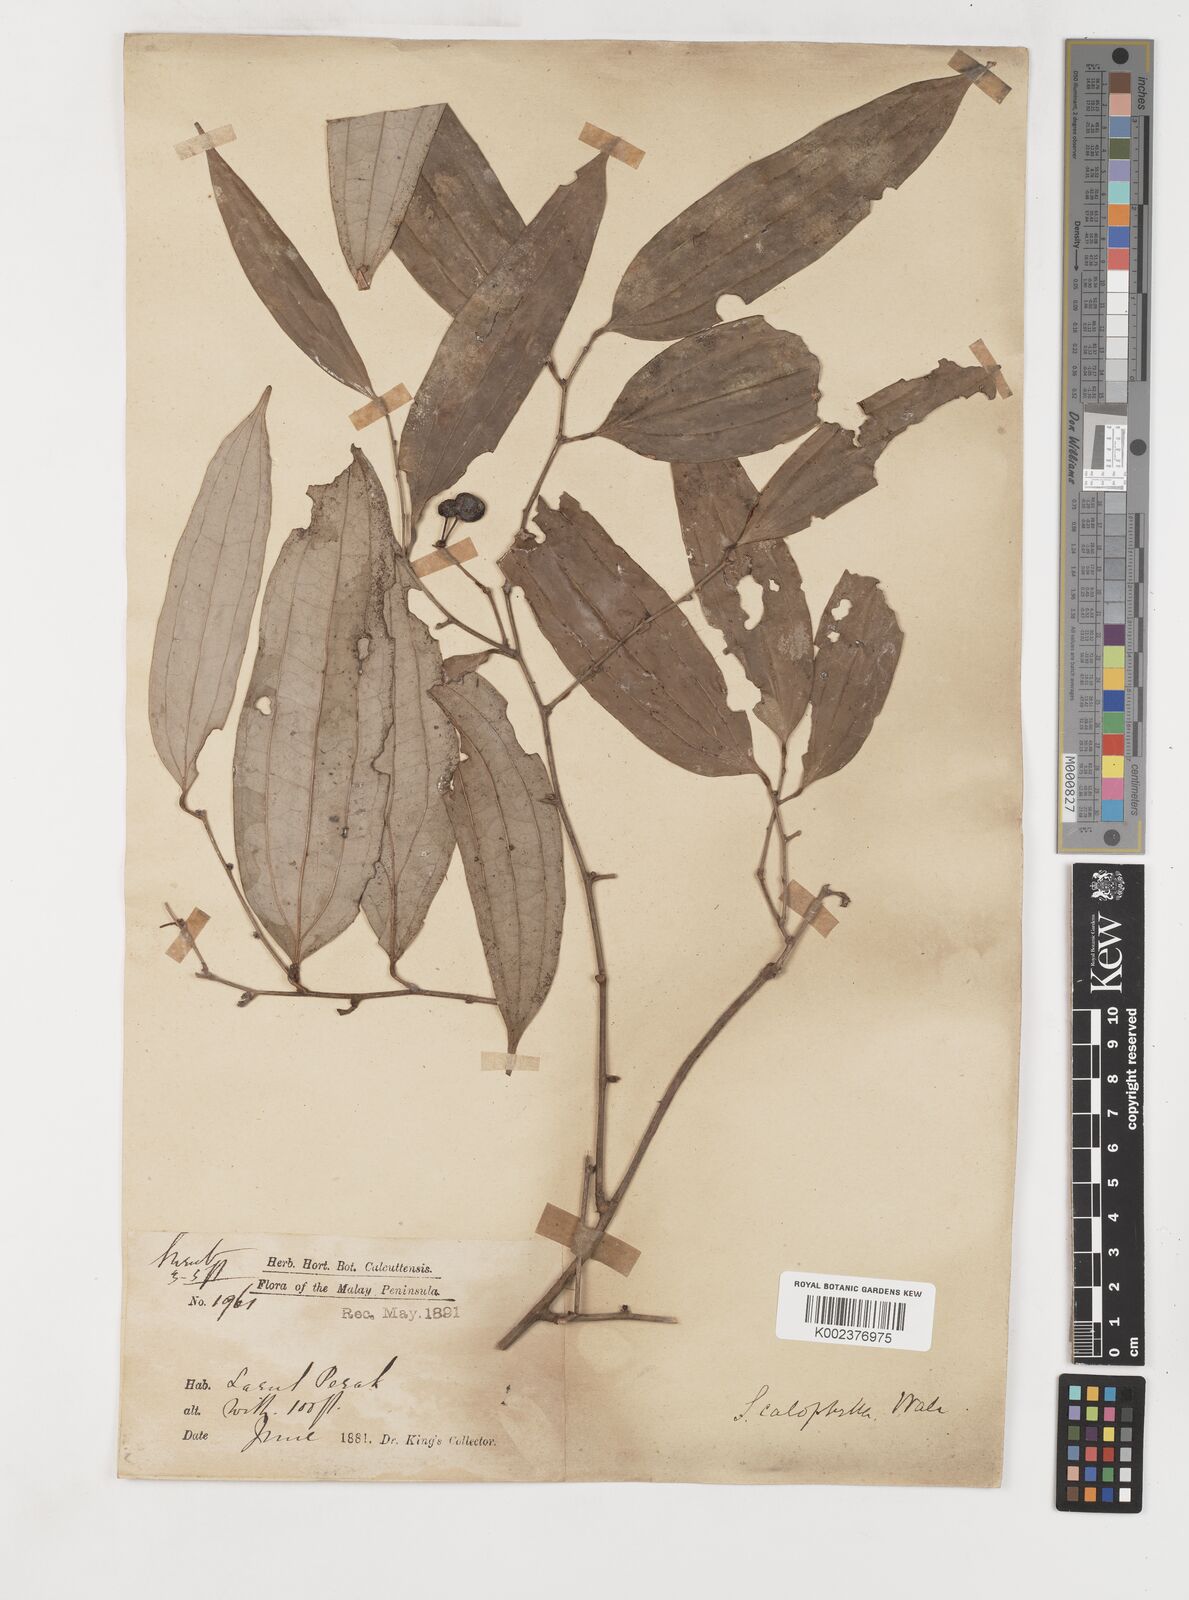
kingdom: Plantae
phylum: Tracheophyta
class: Liliopsida
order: Liliales
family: Smilacaceae
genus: Smilax
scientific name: Smilax calophylla
